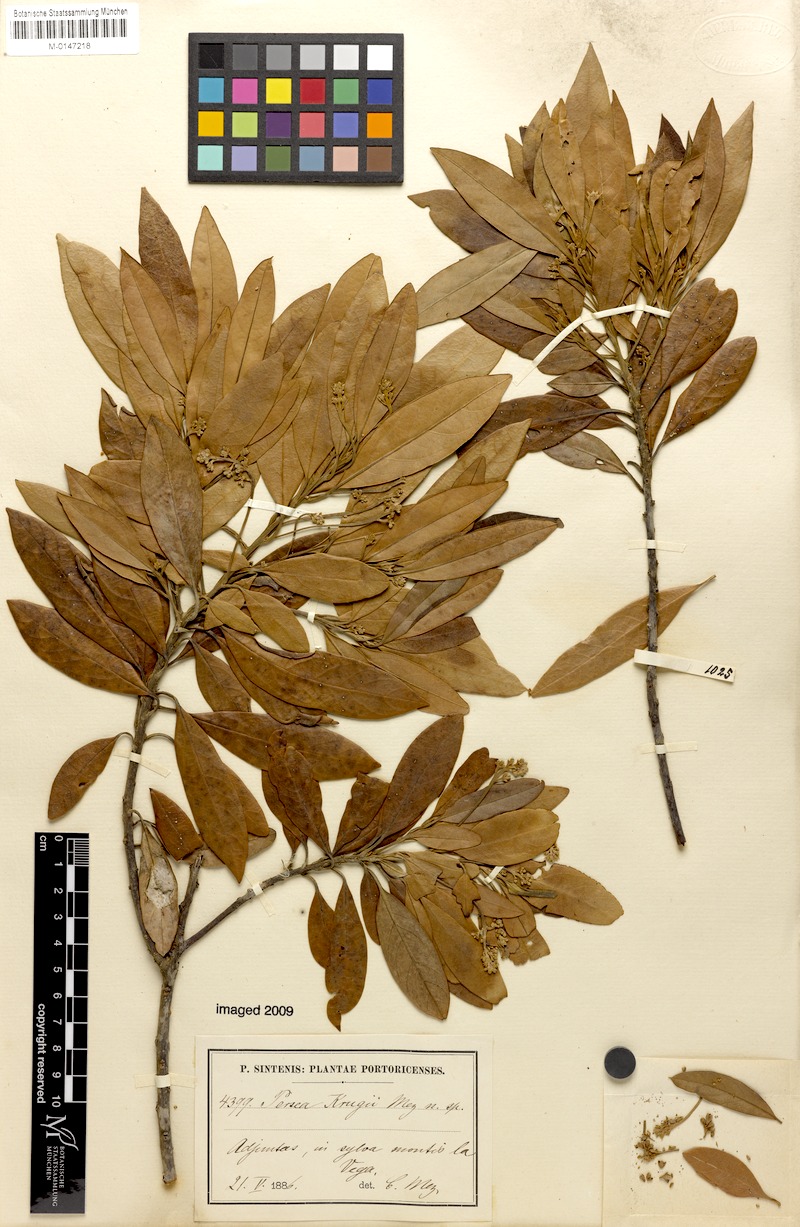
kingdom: Plantae
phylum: Tracheophyta
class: Magnoliopsida
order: Laurales
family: Lauraceae
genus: Persea
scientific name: Persea krugii
